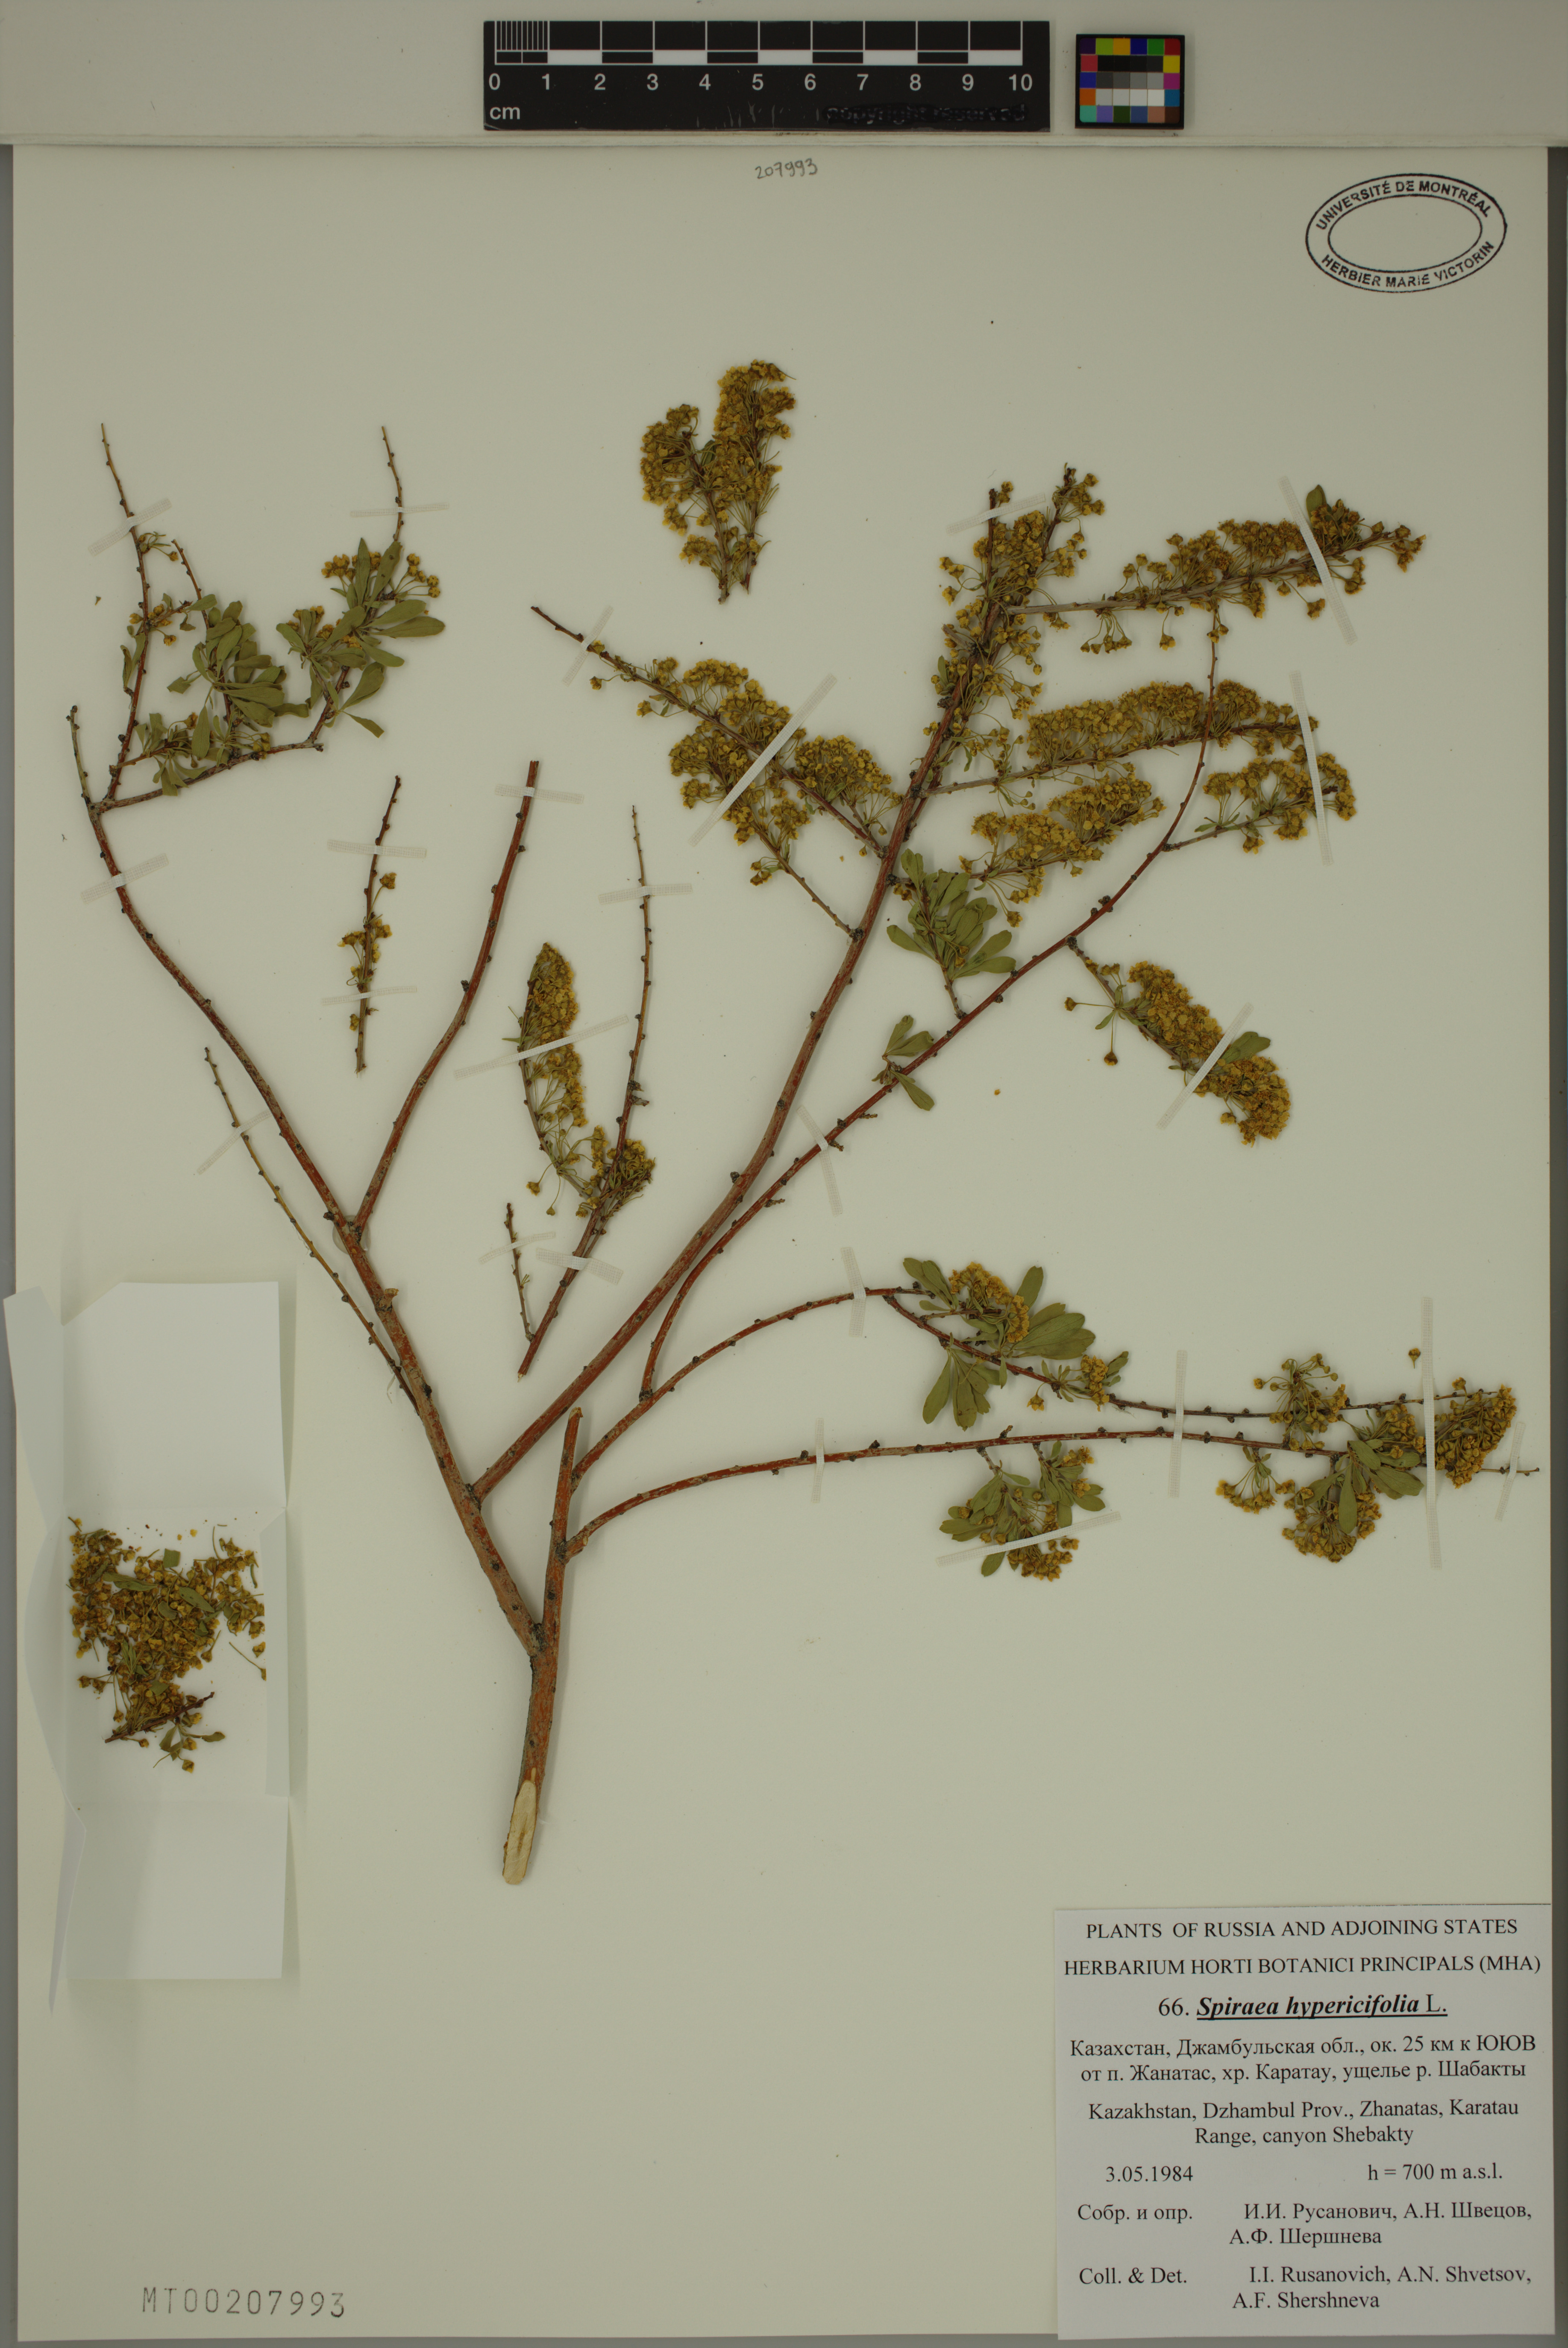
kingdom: Plantae
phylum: Tracheophyta
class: Magnoliopsida
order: Rosales
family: Rosaceae
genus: Spiraea
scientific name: Spiraea hypericifolia
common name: Iberian spirea
